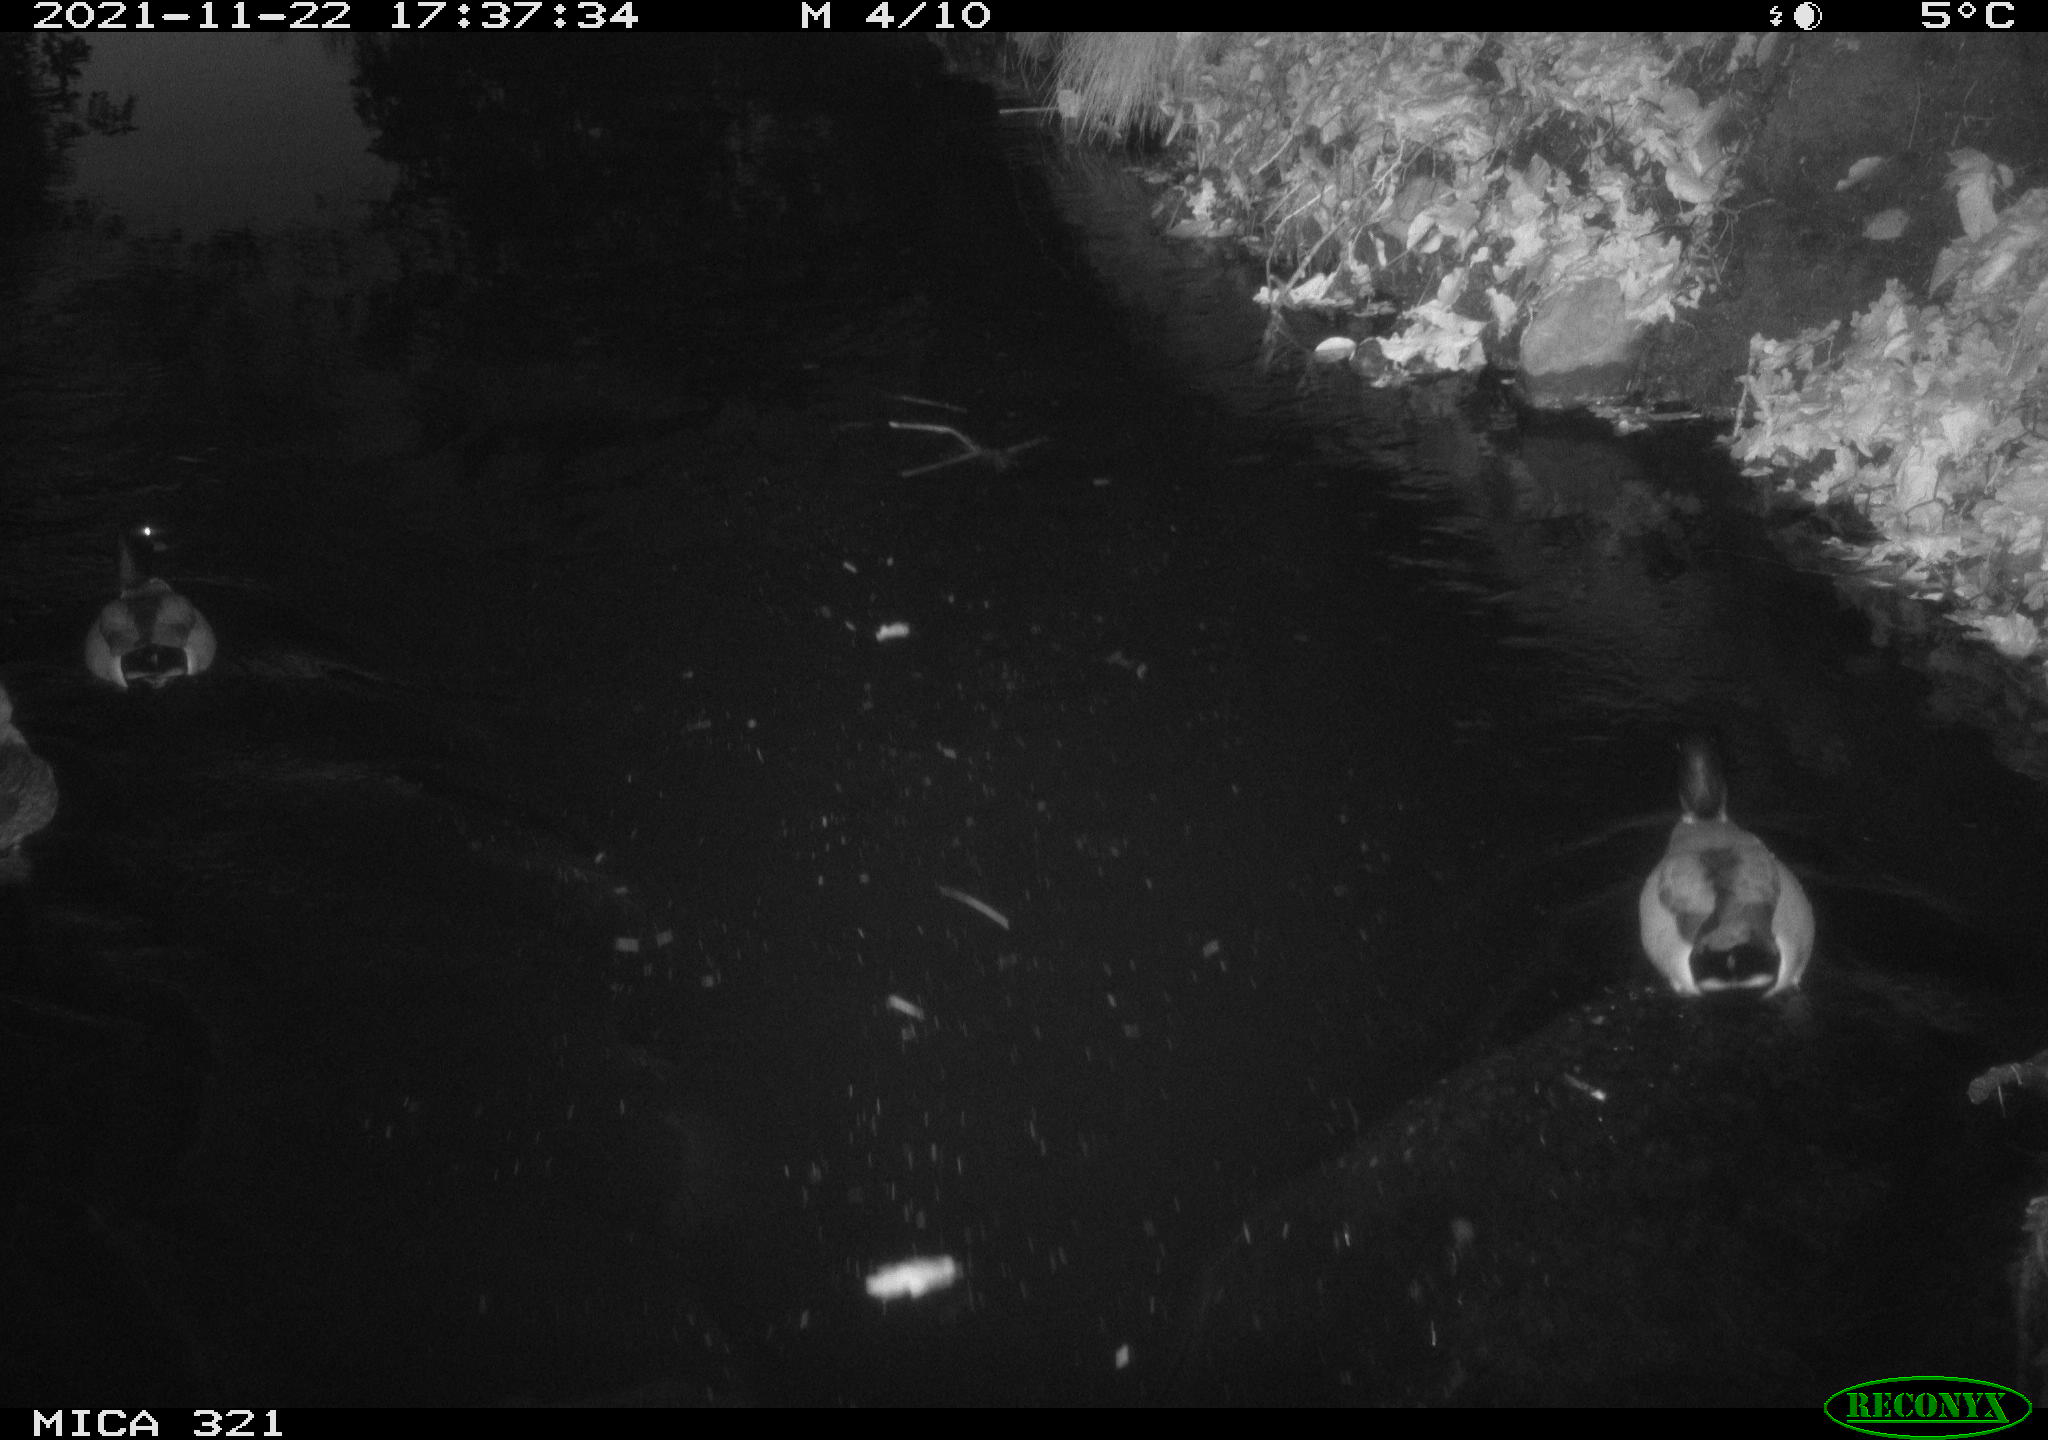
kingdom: Animalia
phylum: Chordata
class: Aves
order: Anseriformes
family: Anatidae
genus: Anas
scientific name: Anas platyrhynchos
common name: Mallard
